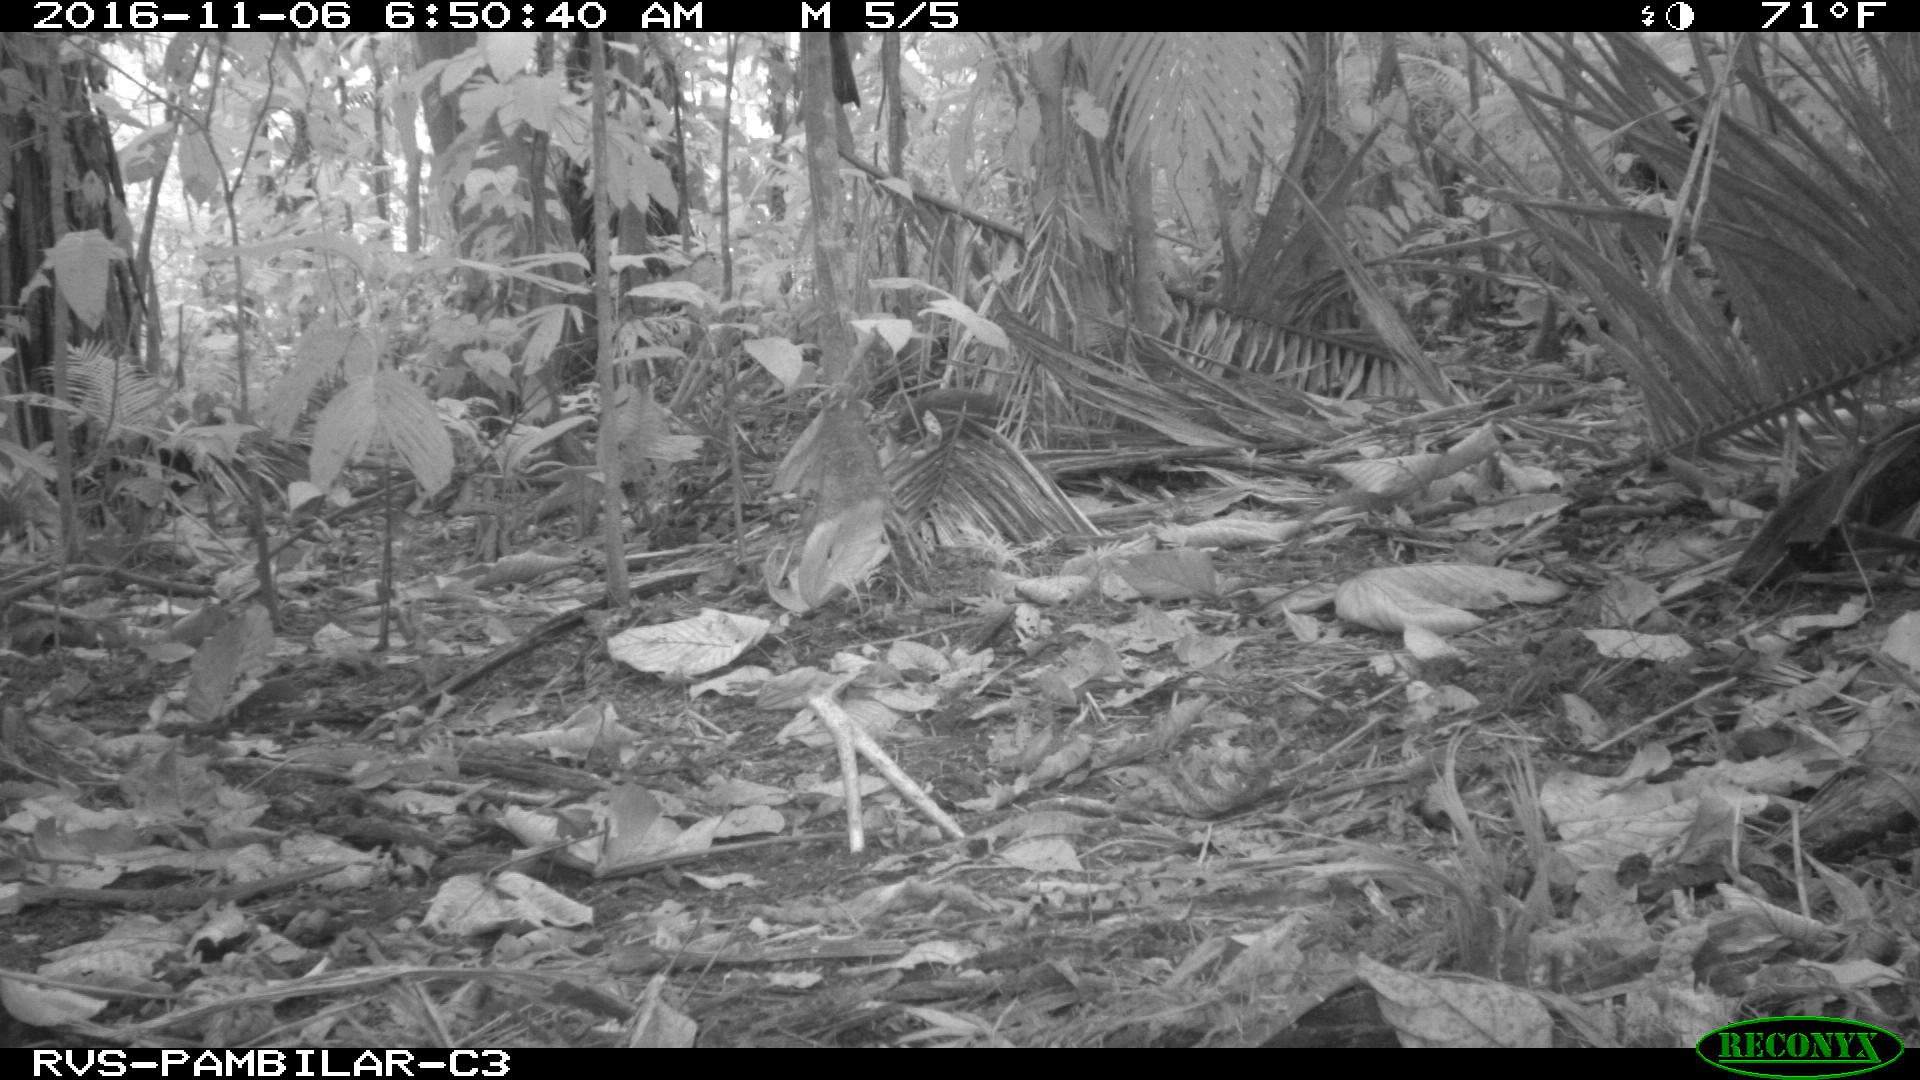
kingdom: Animalia
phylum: Chordata
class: Mammalia
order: Rodentia
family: Dasyproctidae
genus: Dasyprocta
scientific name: Dasyprocta punctata
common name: Central american agouti
